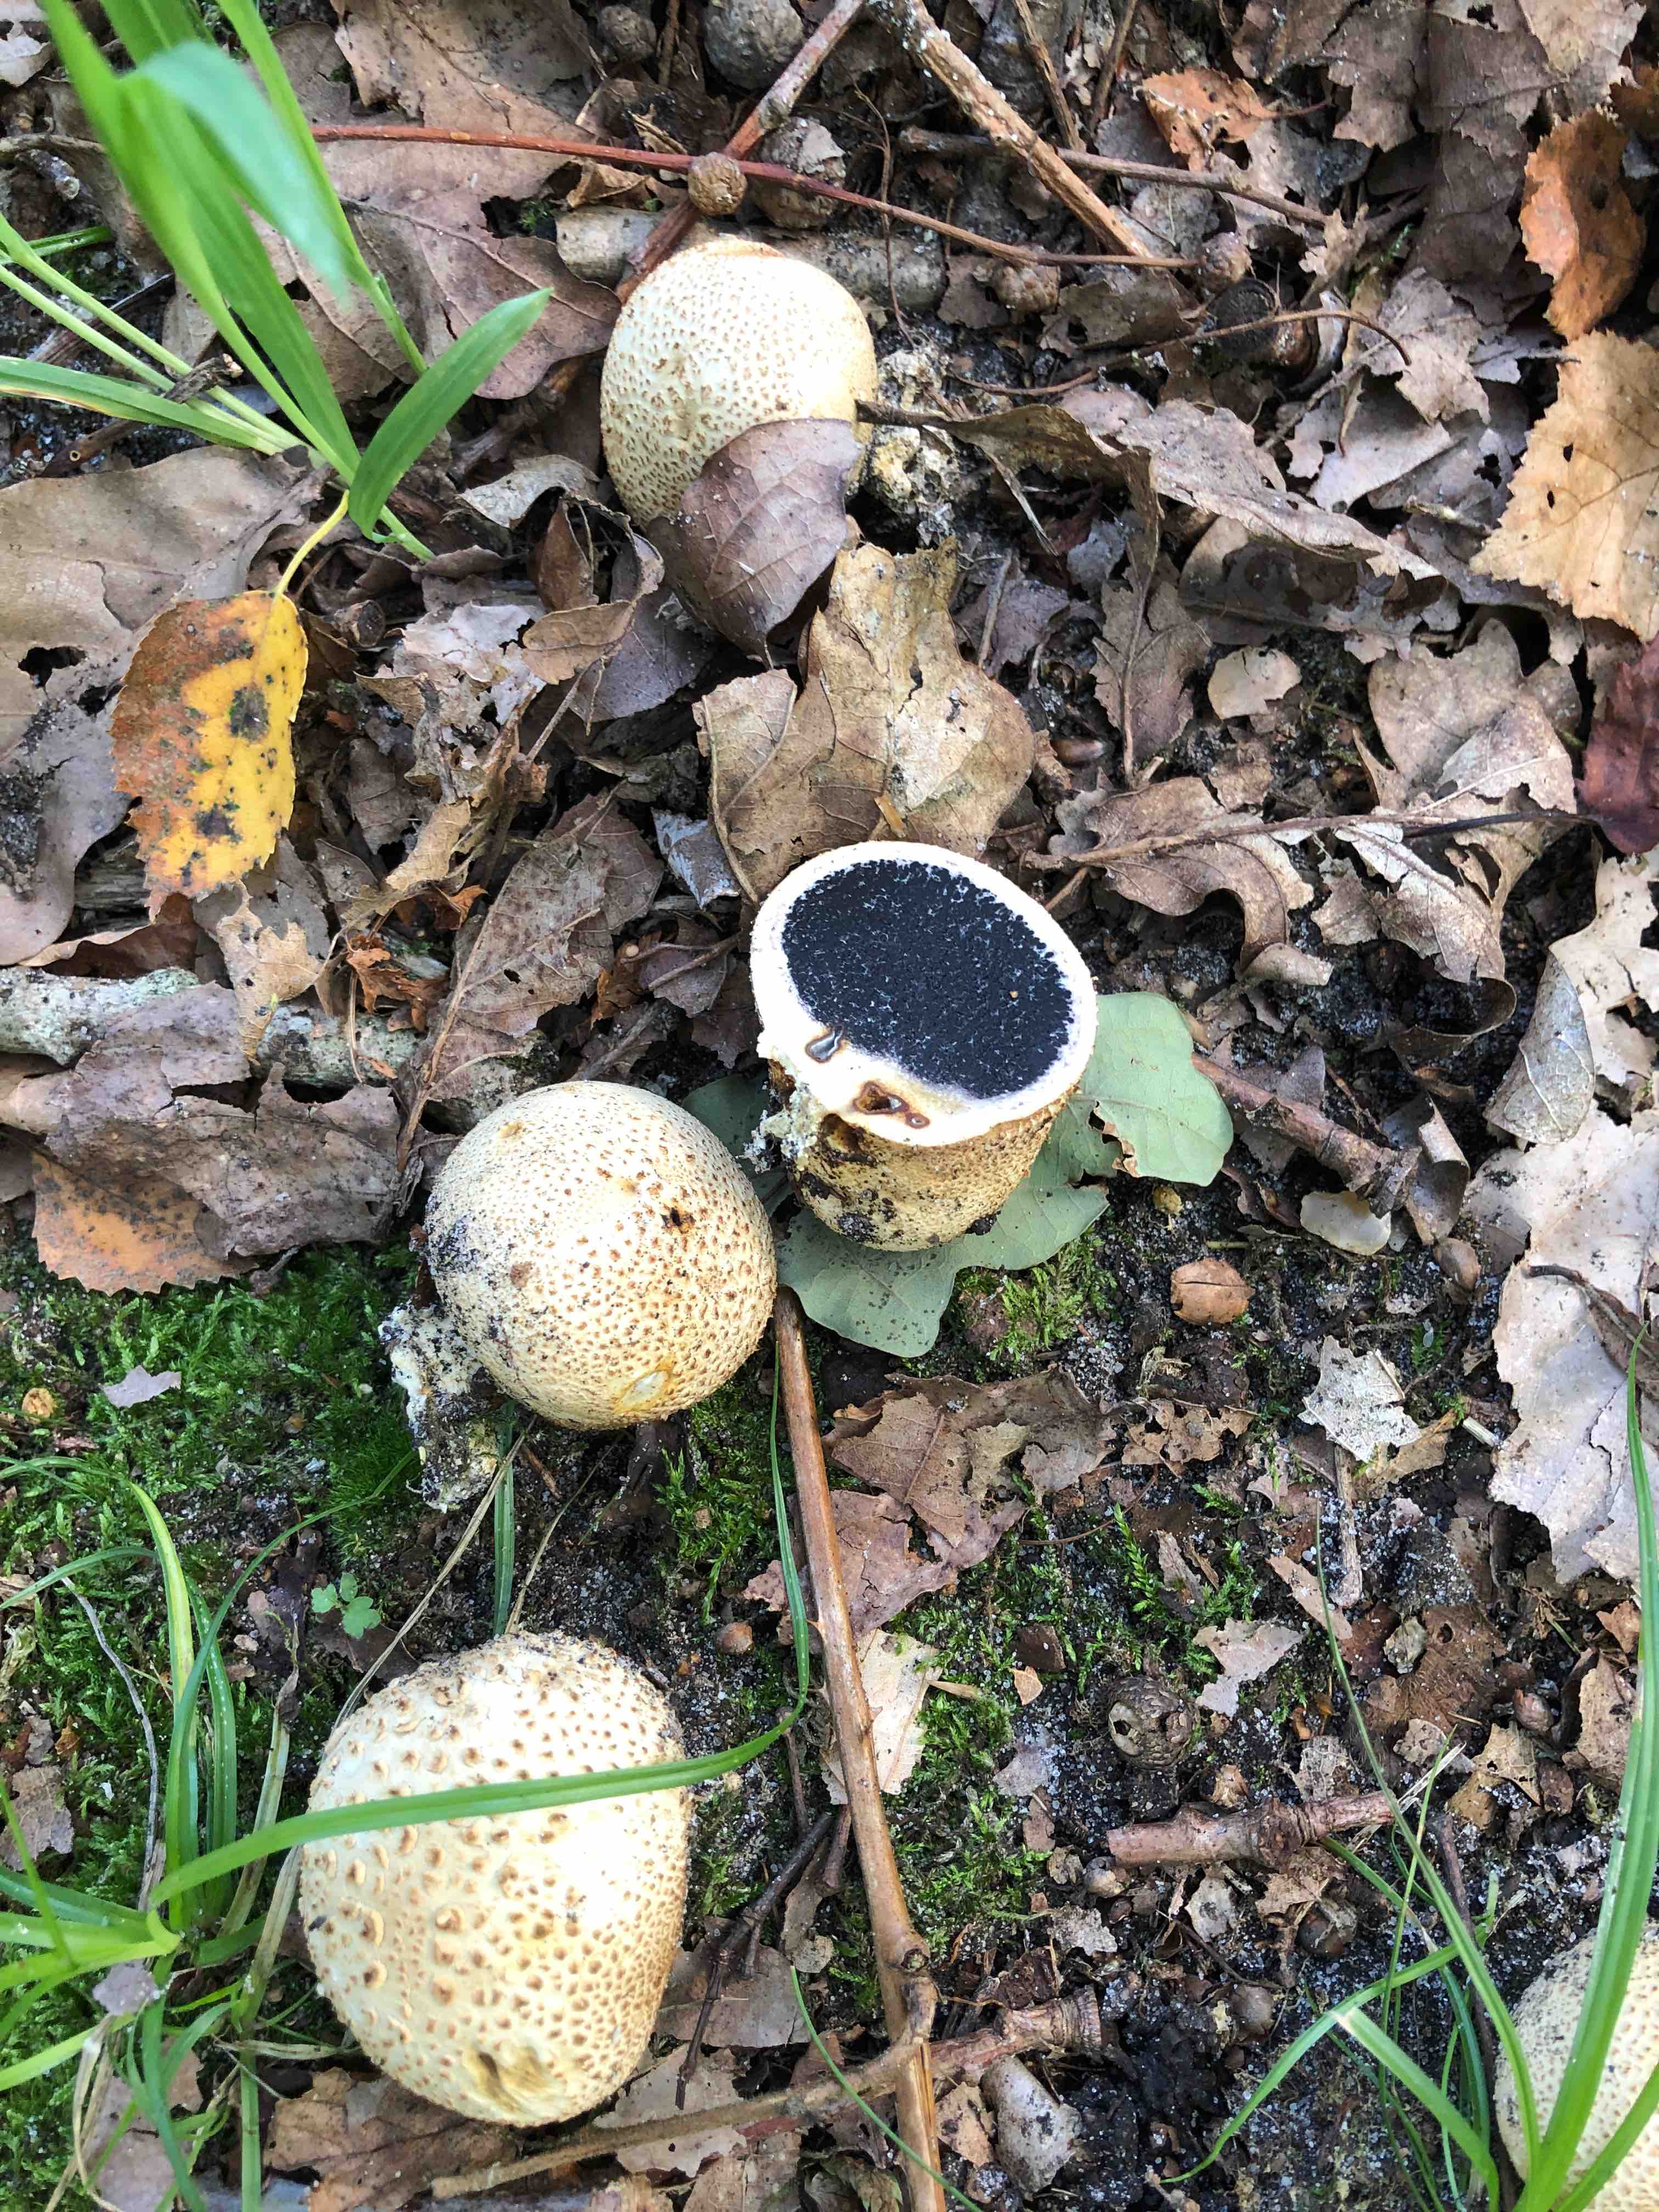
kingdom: Fungi
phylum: Basidiomycota
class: Agaricomycetes
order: Boletales
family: Sclerodermataceae
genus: Scleroderma
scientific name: Scleroderma citrinum
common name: almindelig bruskbold
